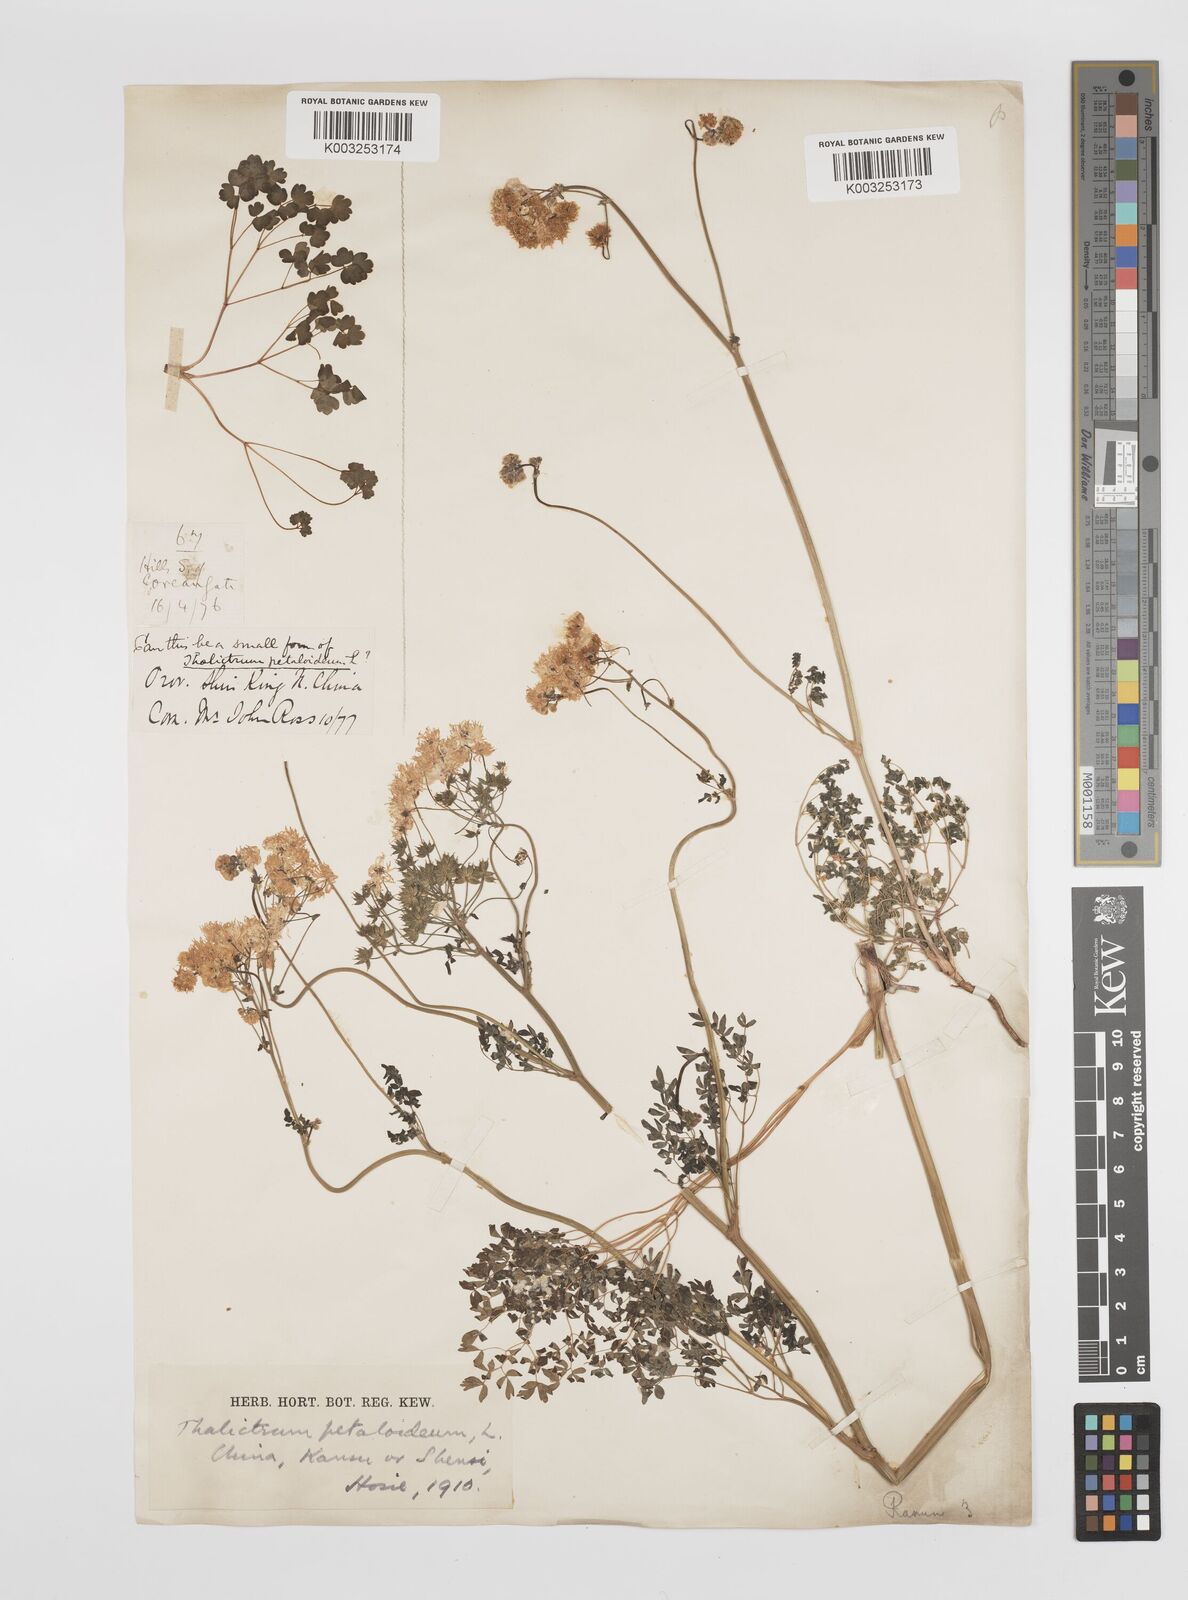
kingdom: Plantae
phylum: Tracheophyta
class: Magnoliopsida
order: Ranunculales
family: Ranunculaceae
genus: Thalictrum
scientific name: Thalictrum petaloideum
